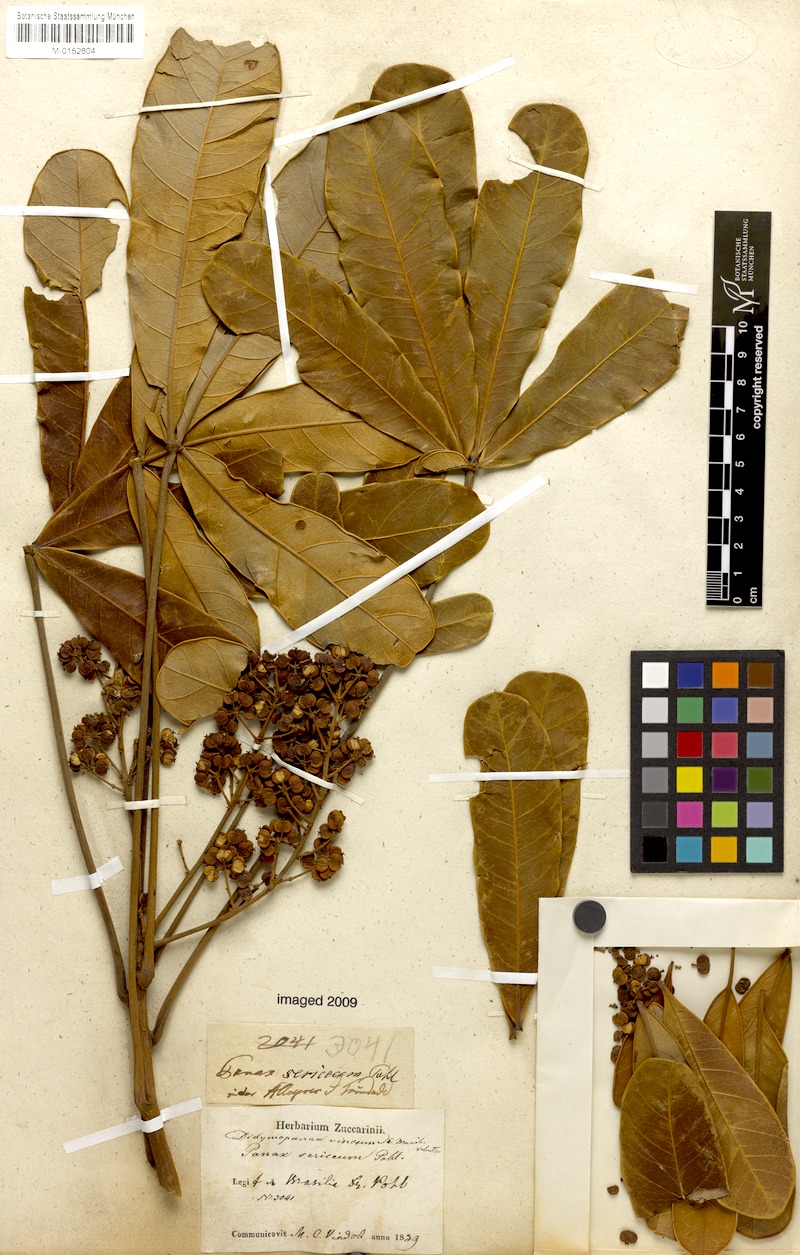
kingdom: Plantae
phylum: Tracheophyta
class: Magnoliopsida
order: Apiales
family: Araliaceae
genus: Didymopanax
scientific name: Didymopanax vinosus
